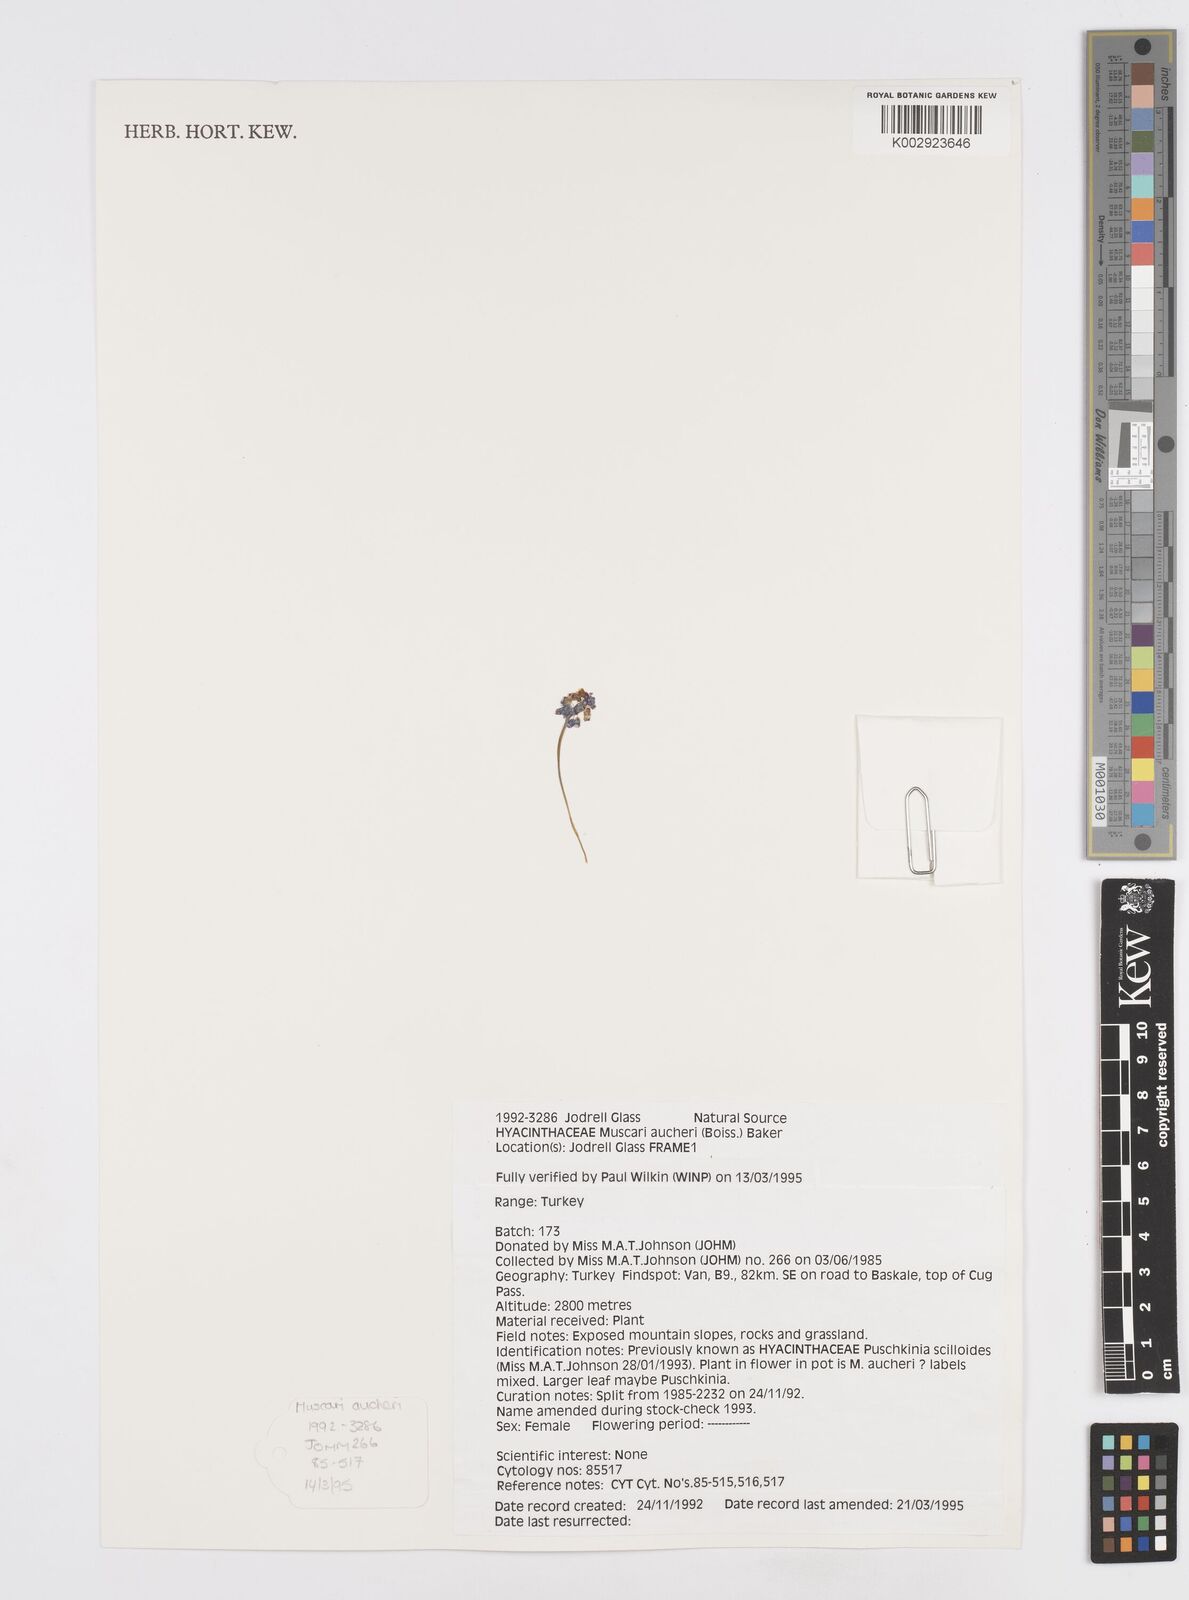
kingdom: Plantae
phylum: Tracheophyta
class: Liliopsida
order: Asparagales
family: Asparagaceae
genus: Muscari
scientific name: Muscari aucheri
